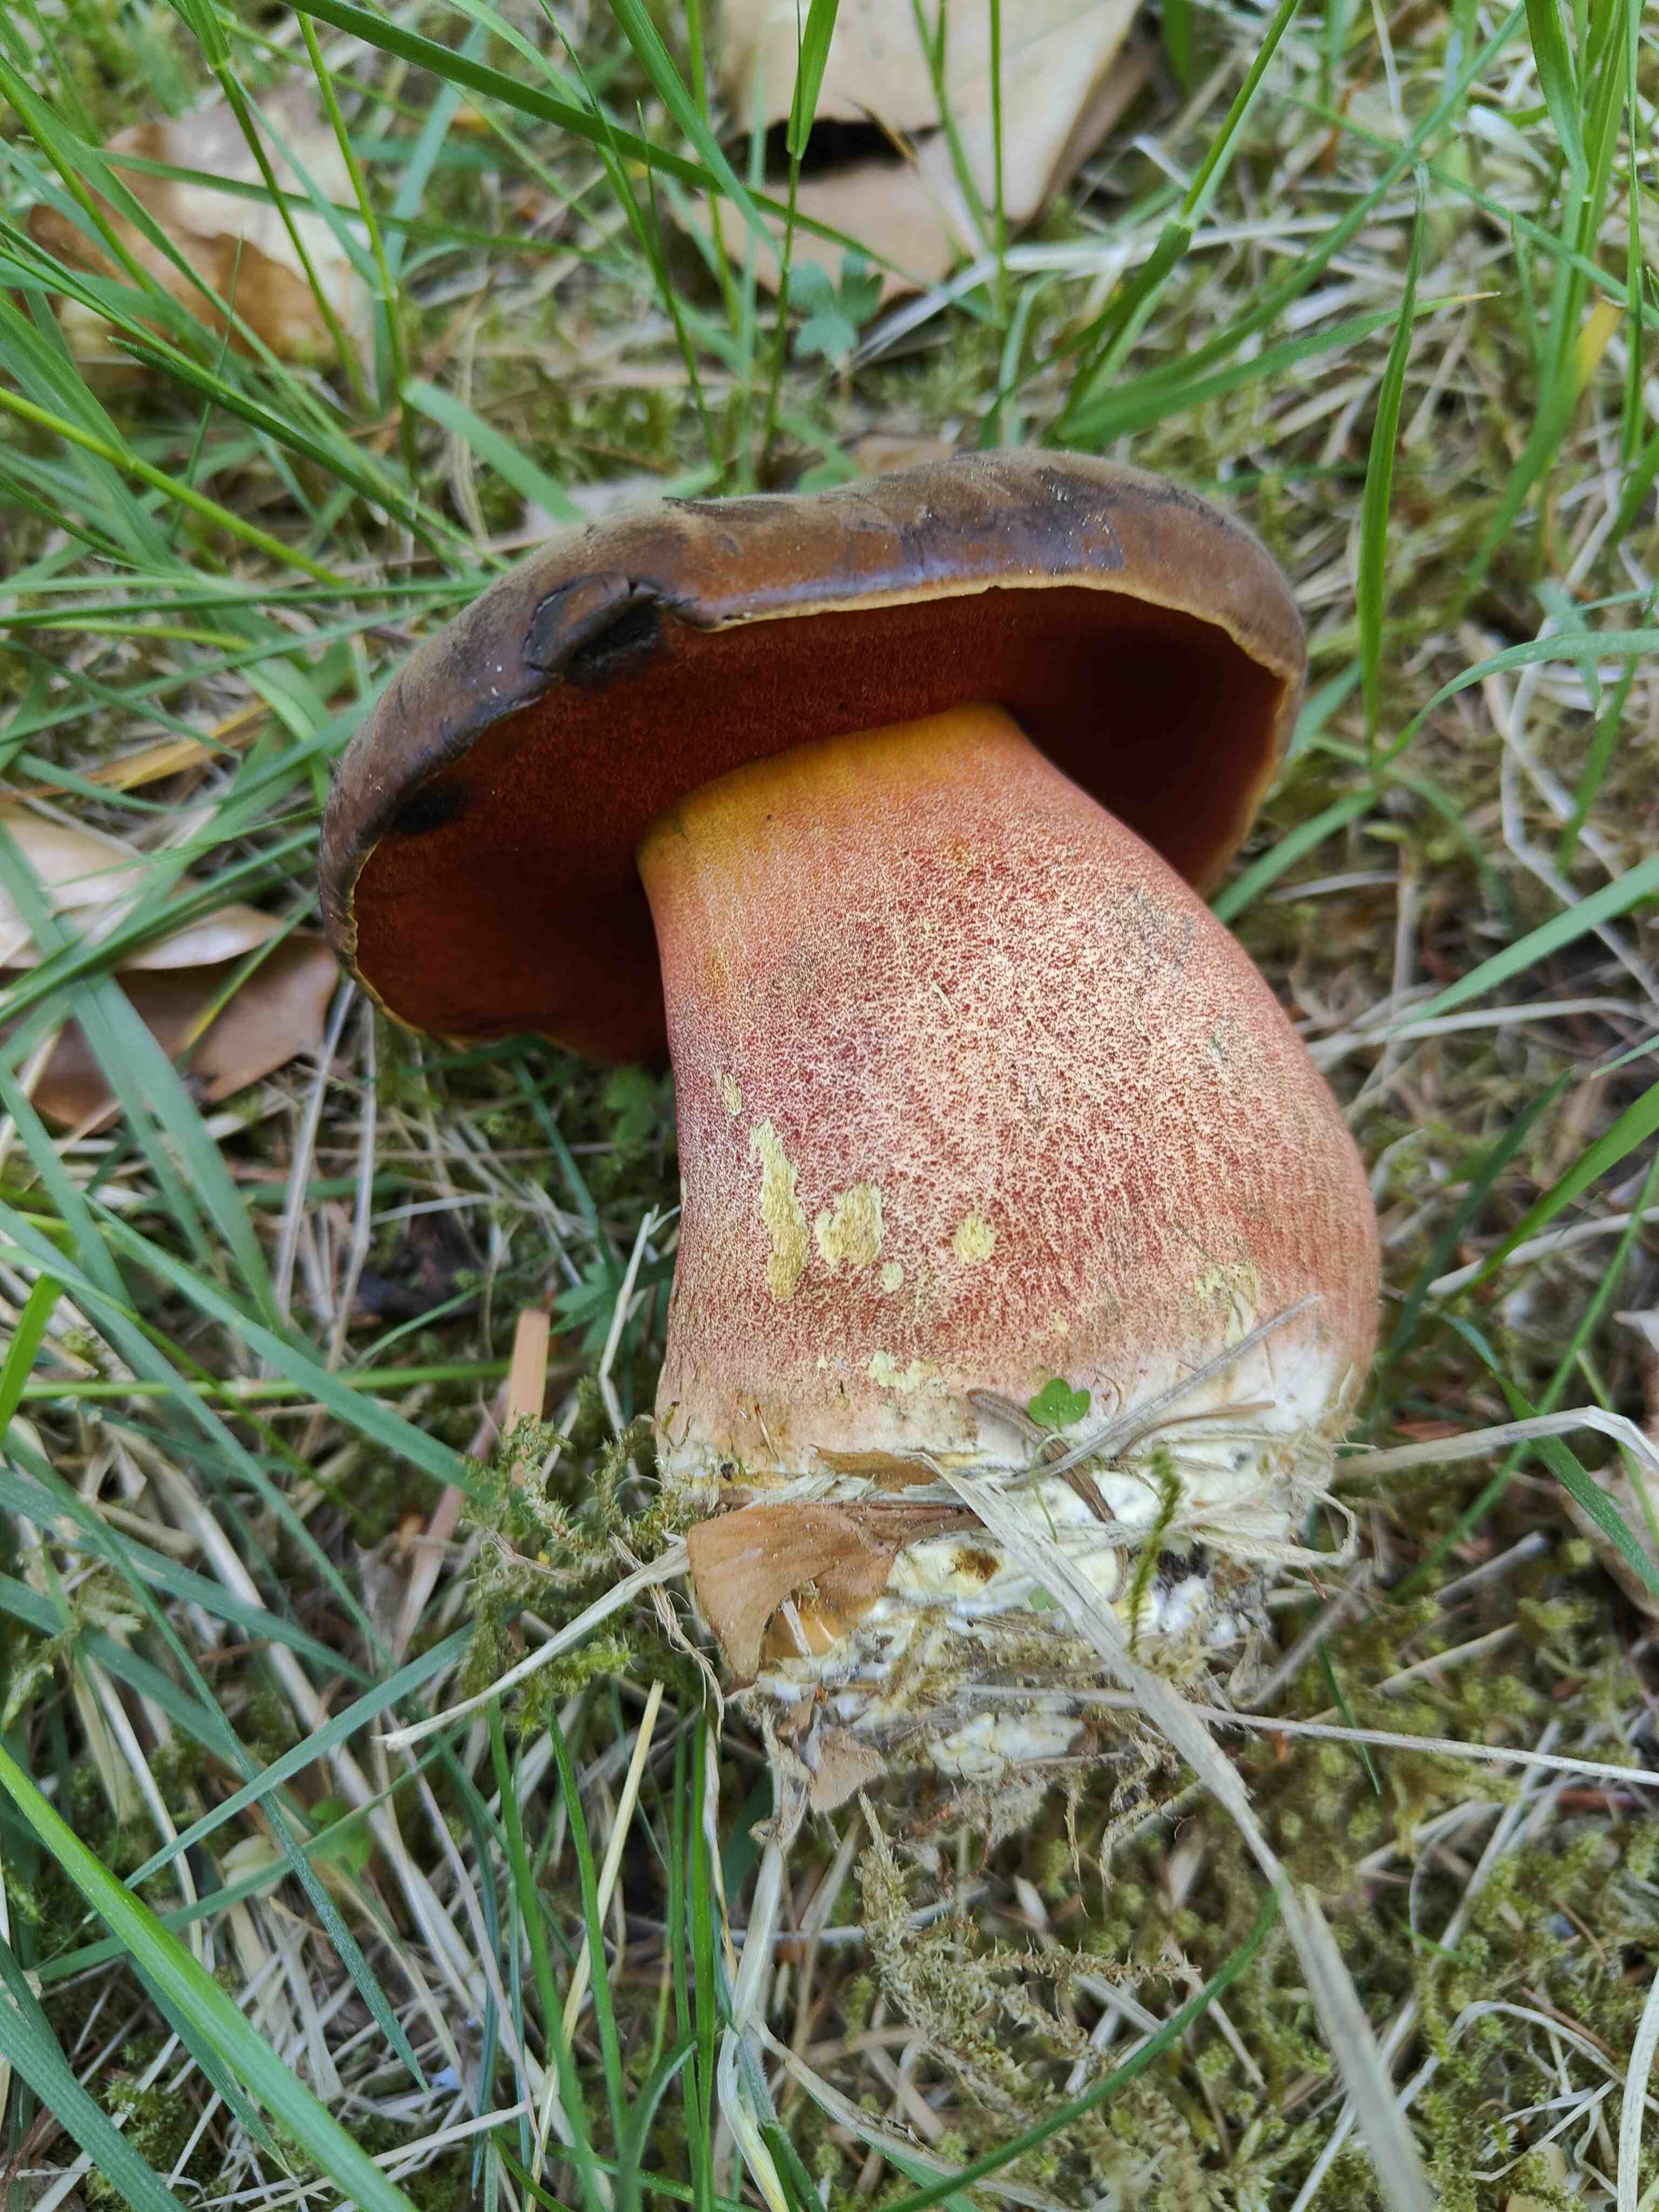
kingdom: Fungi
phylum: Basidiomycota
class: Agaricomycetes
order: Boletales
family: Boletaceae
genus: Neoboletus
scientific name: Neoboletus erythropus
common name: punktstokket indigorørhat
